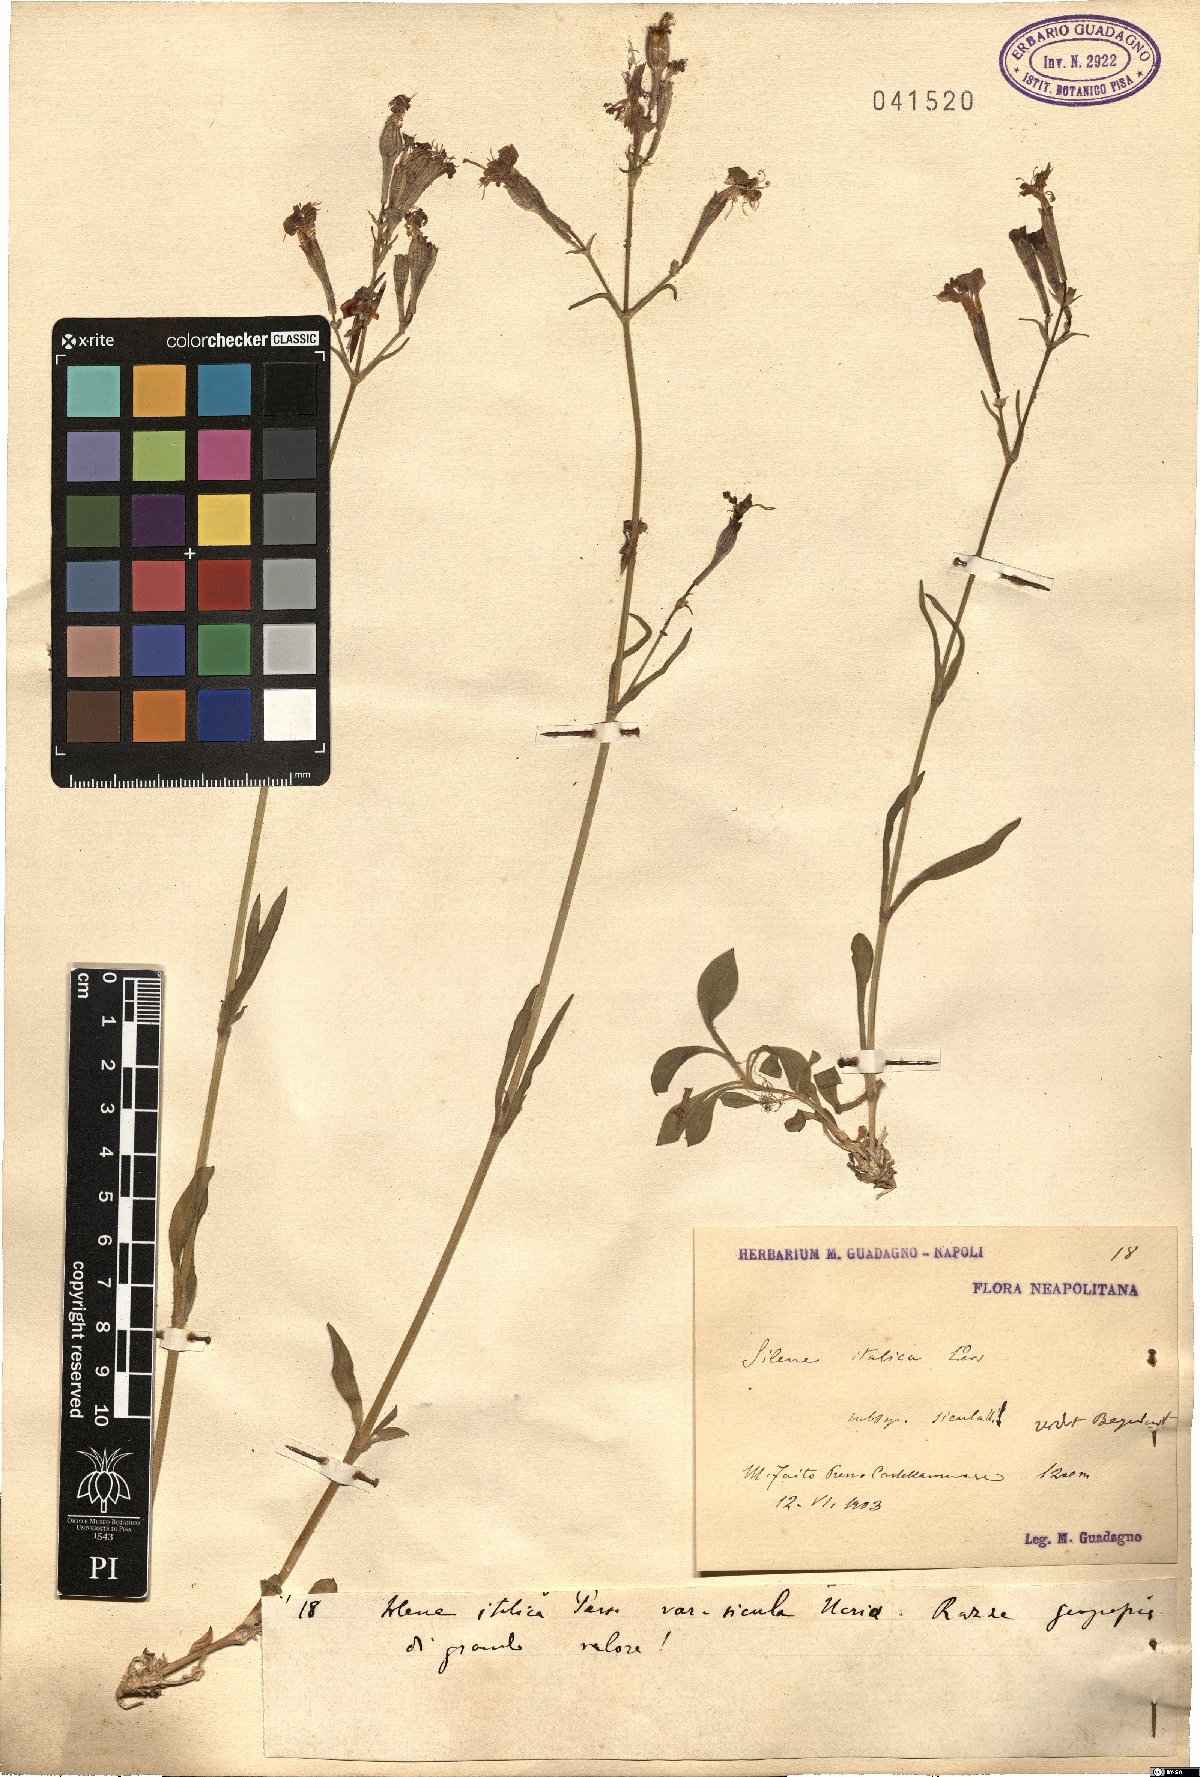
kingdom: Plantae
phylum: Tracheophyta
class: Magnoliopsida
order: Caryophyllales
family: Caryophyllaceae
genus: Silene
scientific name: Silene italica
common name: Italian catchfly
